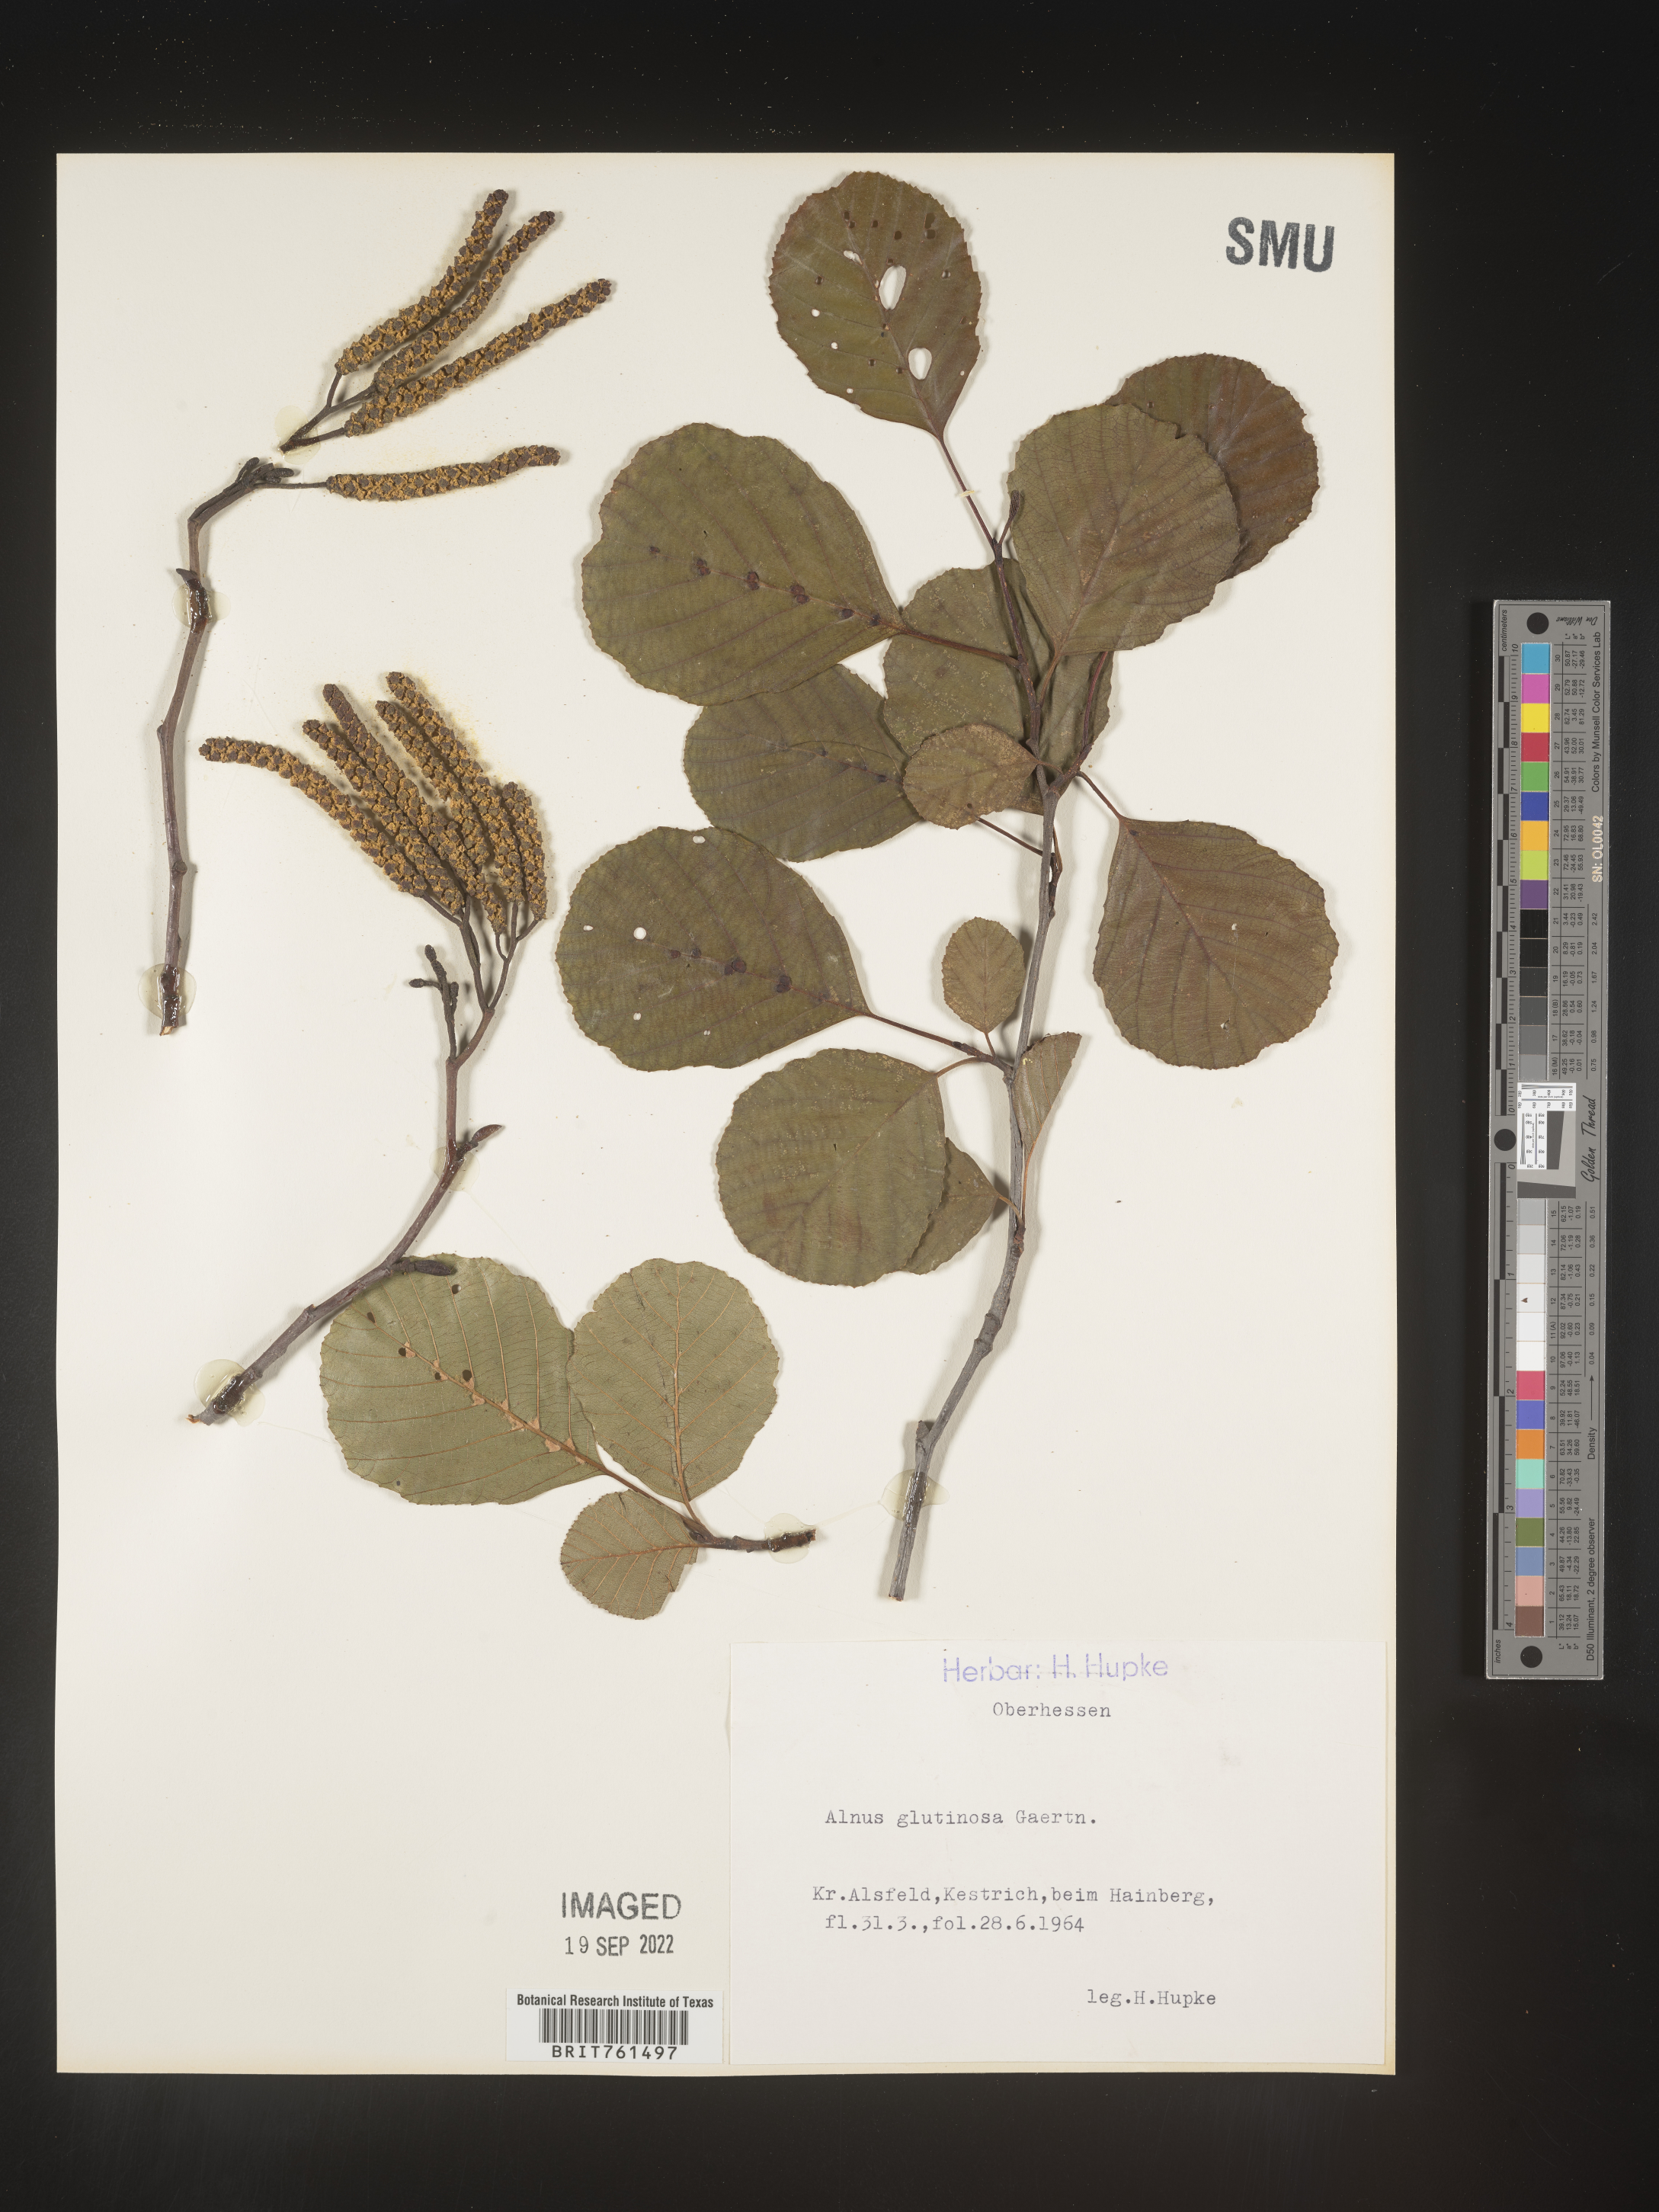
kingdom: Plantae
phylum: Tracheophyta
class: Magnoliopsida
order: Fagales
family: Betulaceae
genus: Alnus
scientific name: Alnus
